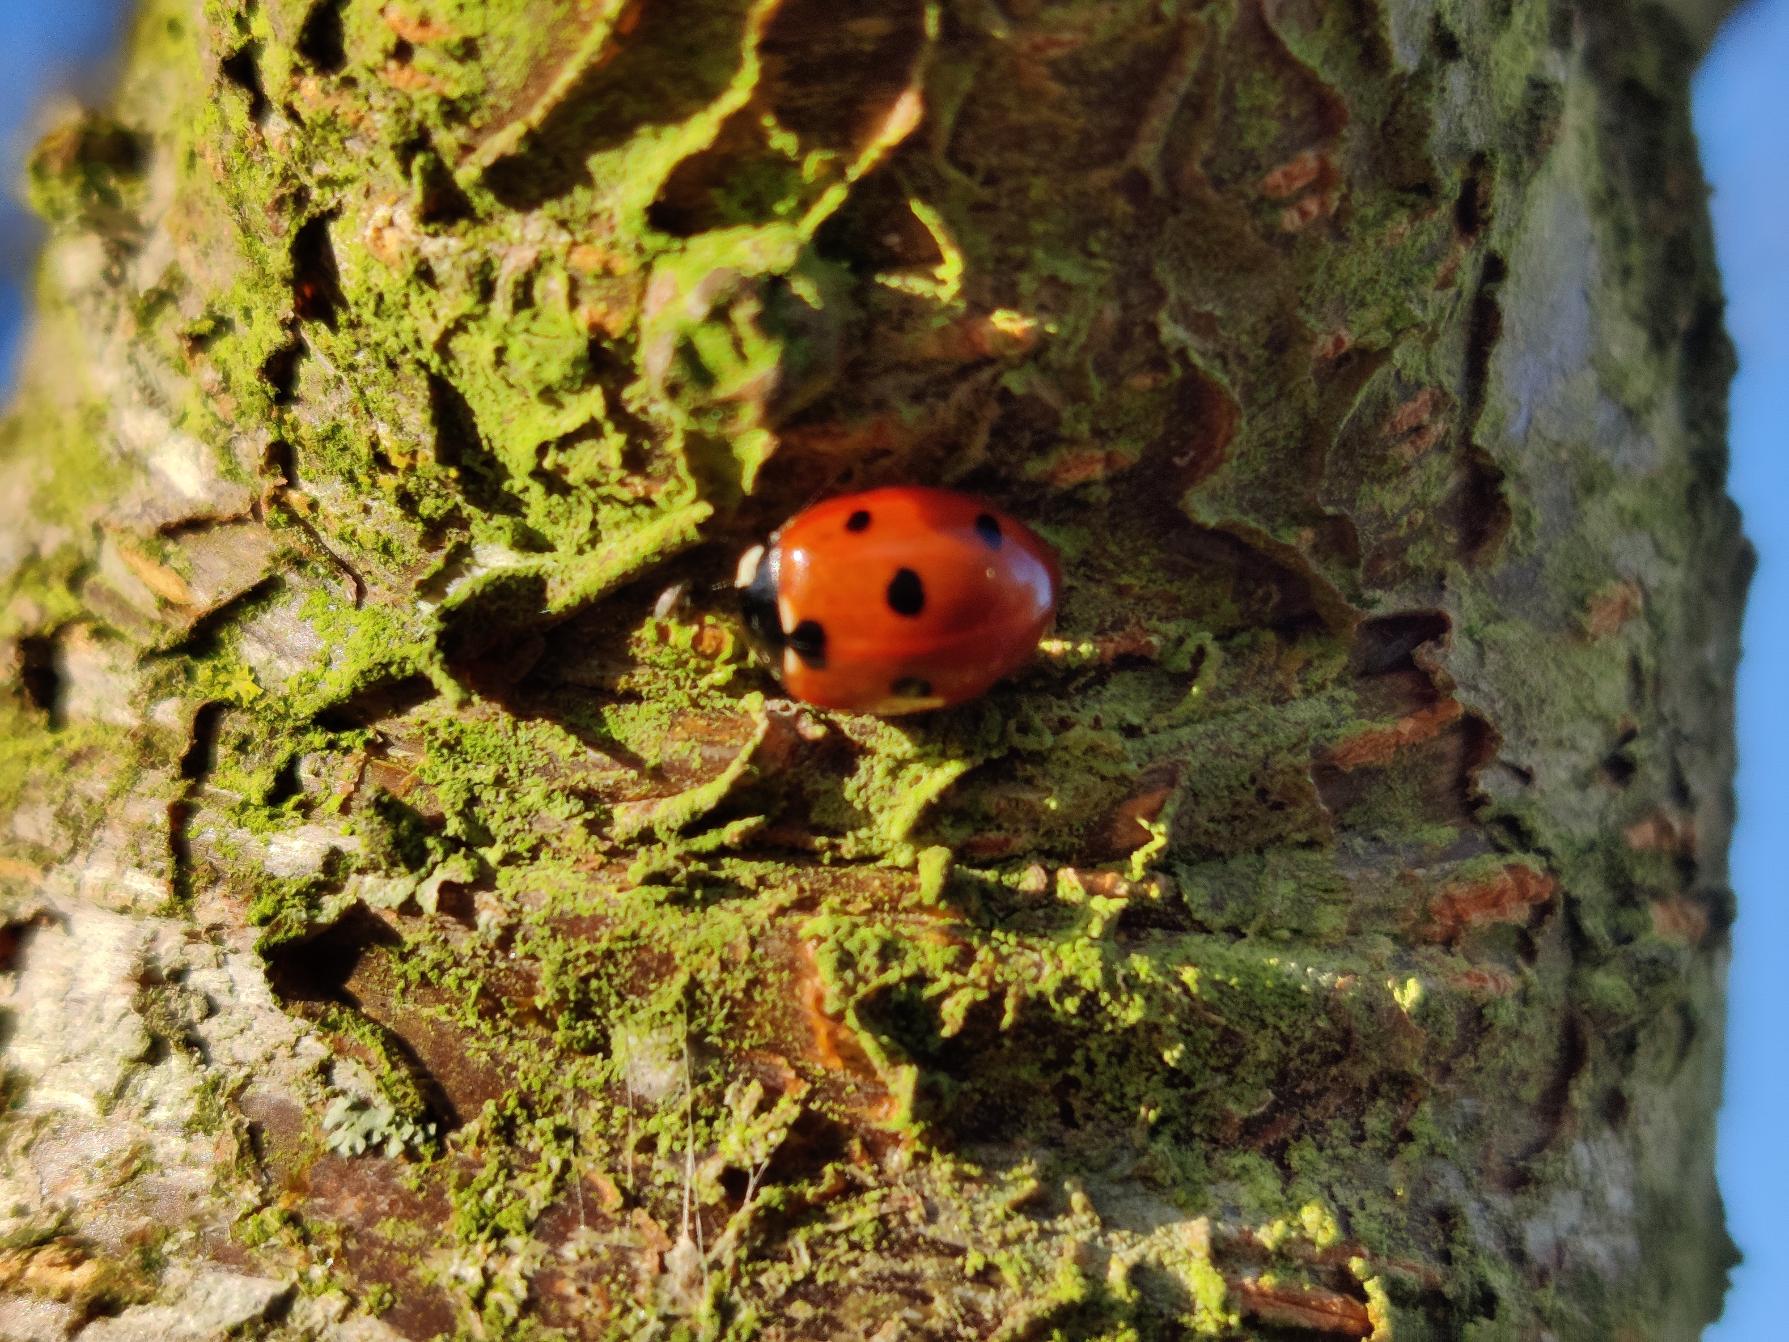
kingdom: Animalia
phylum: Arthropoda
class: Insecta
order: Coleoptera
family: Coccinellidae
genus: Coccinella
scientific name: Coccinella septempunctata
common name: Syvplettet mariehøne
